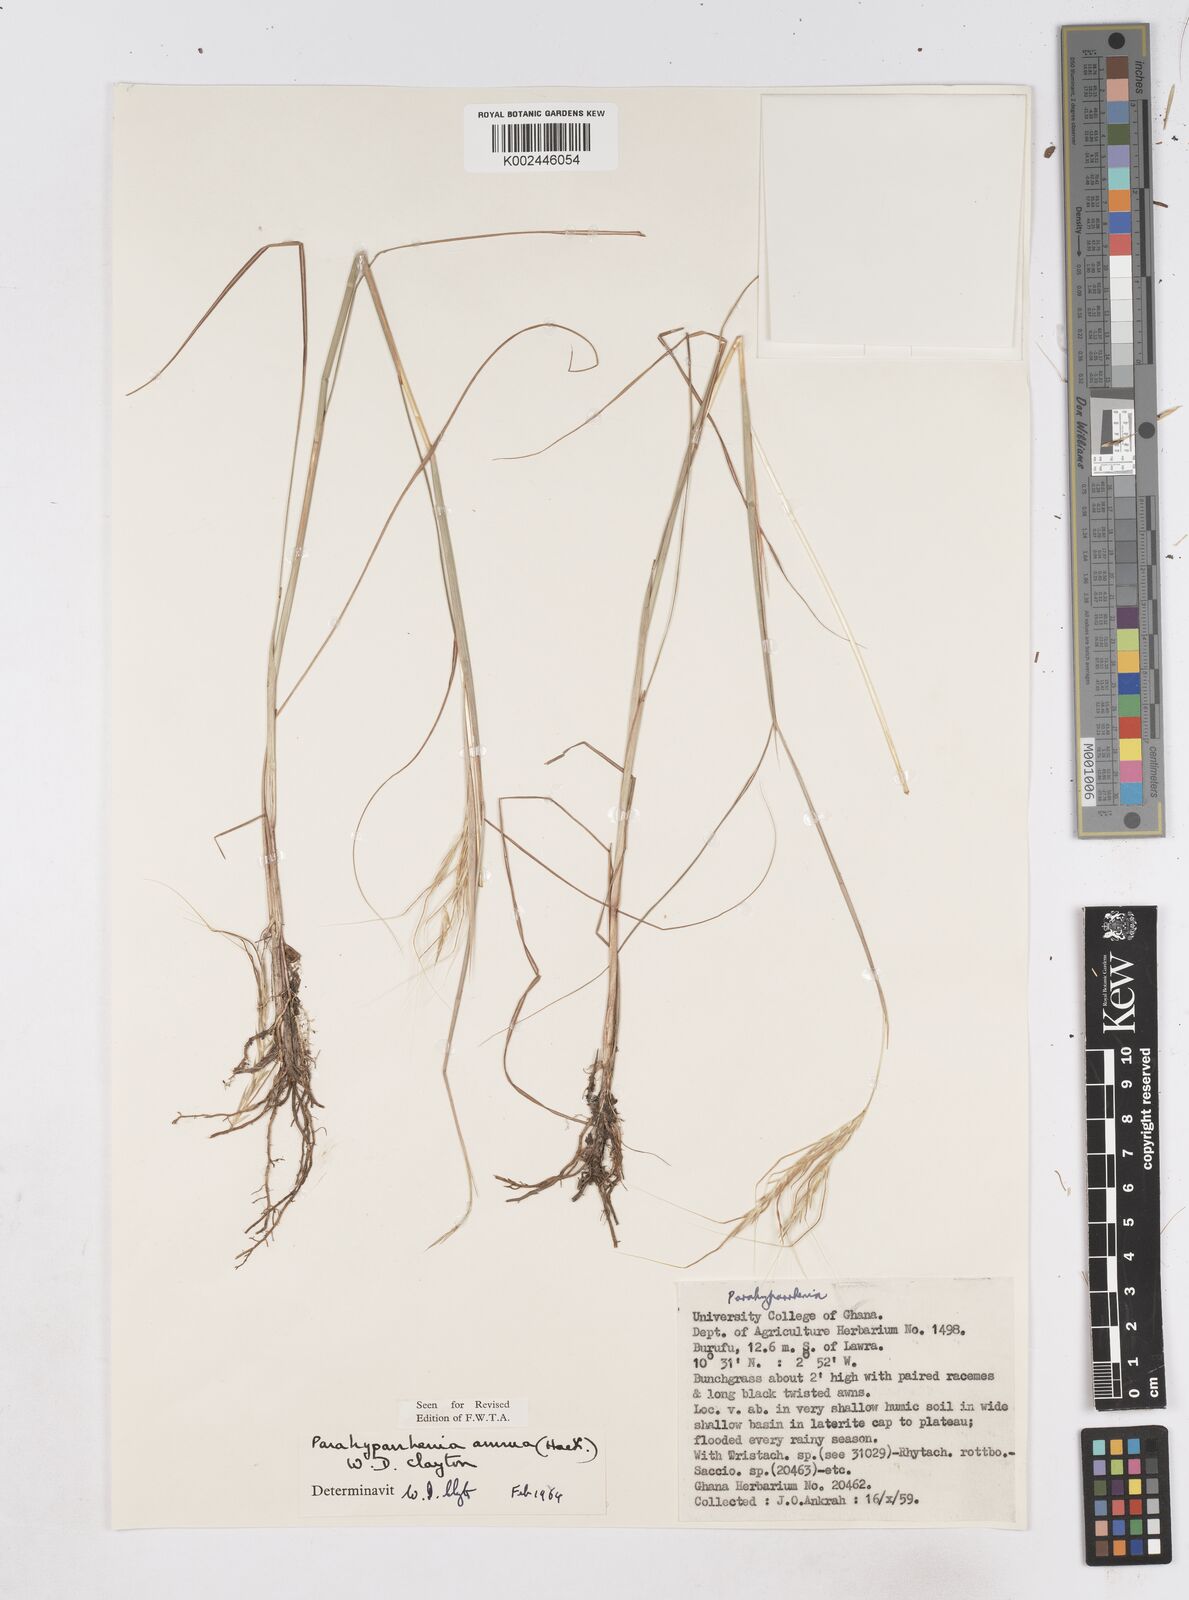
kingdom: Plantae
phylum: Tracheophyta
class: Liliopsida
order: Poales
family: Poaceae
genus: Parahyparrhenia
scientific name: Parahyparrhenia annua
